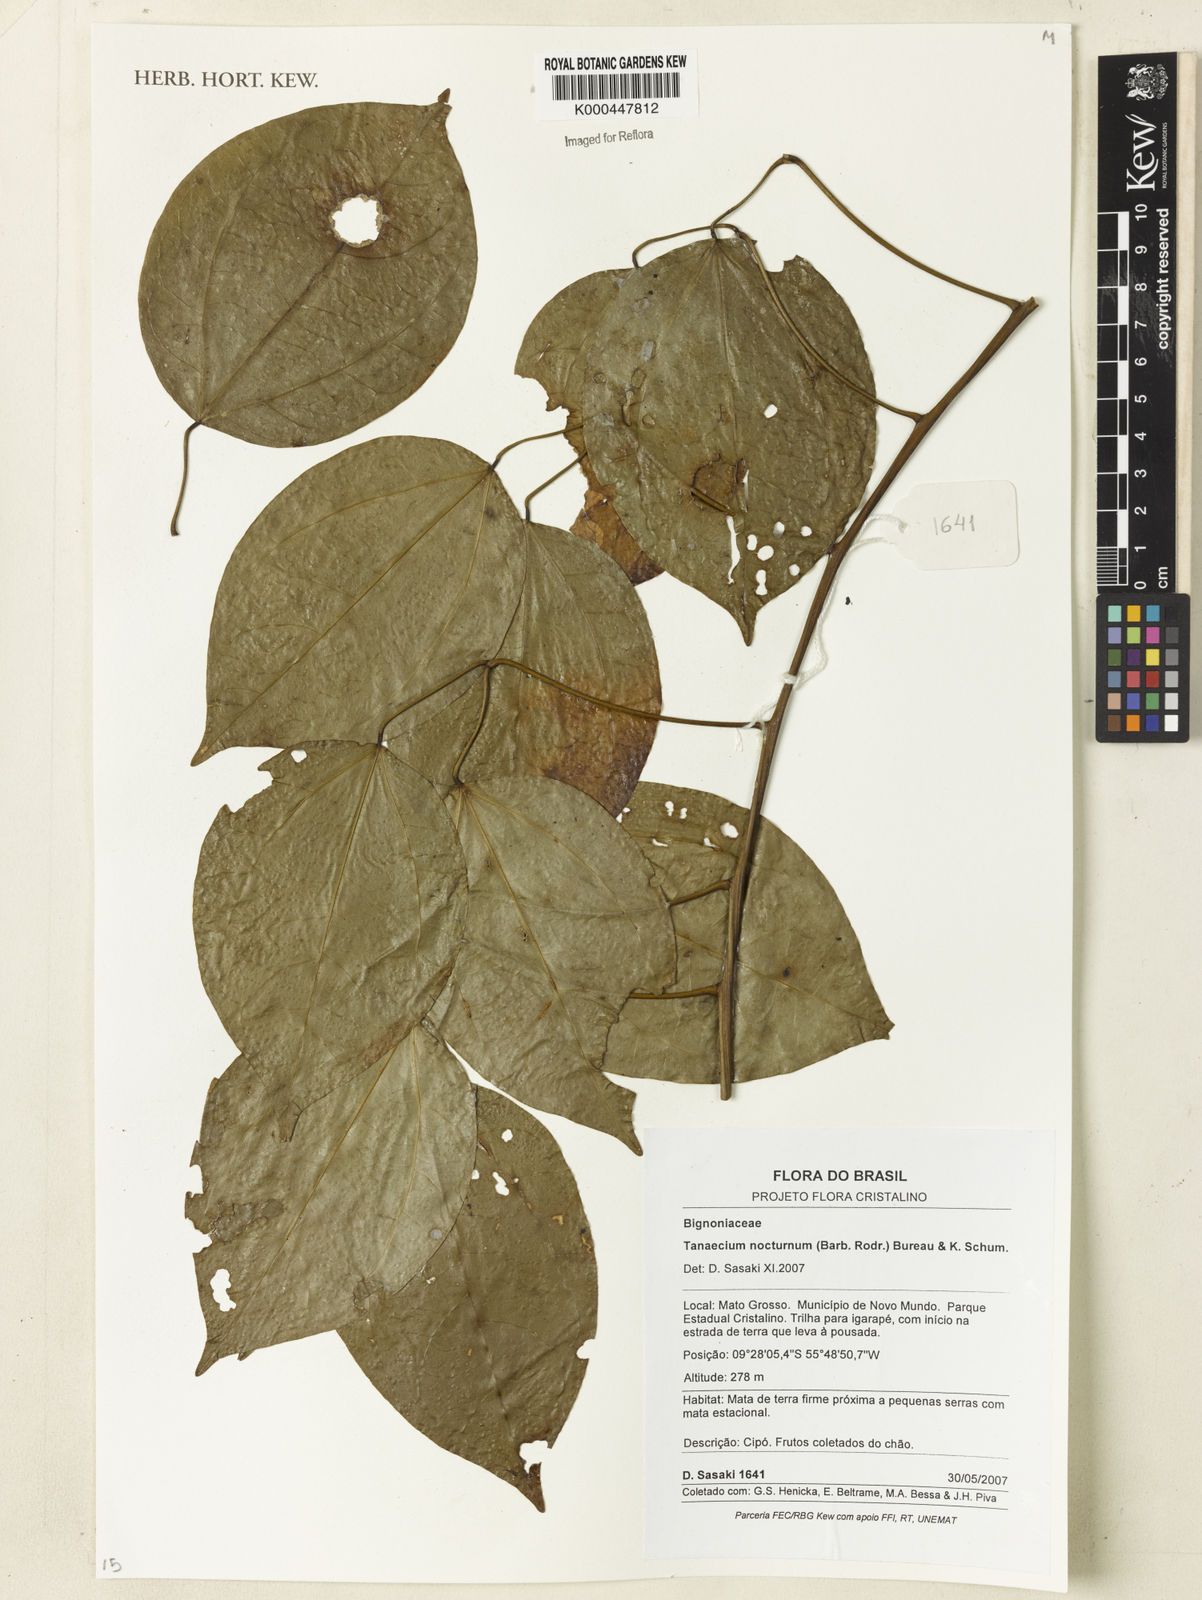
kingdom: Plantae
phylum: Tracheophyta
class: Magnoliopsida
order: Lamiales
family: Bignoniaceae
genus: Bignonia
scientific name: Bignonia nocturna
